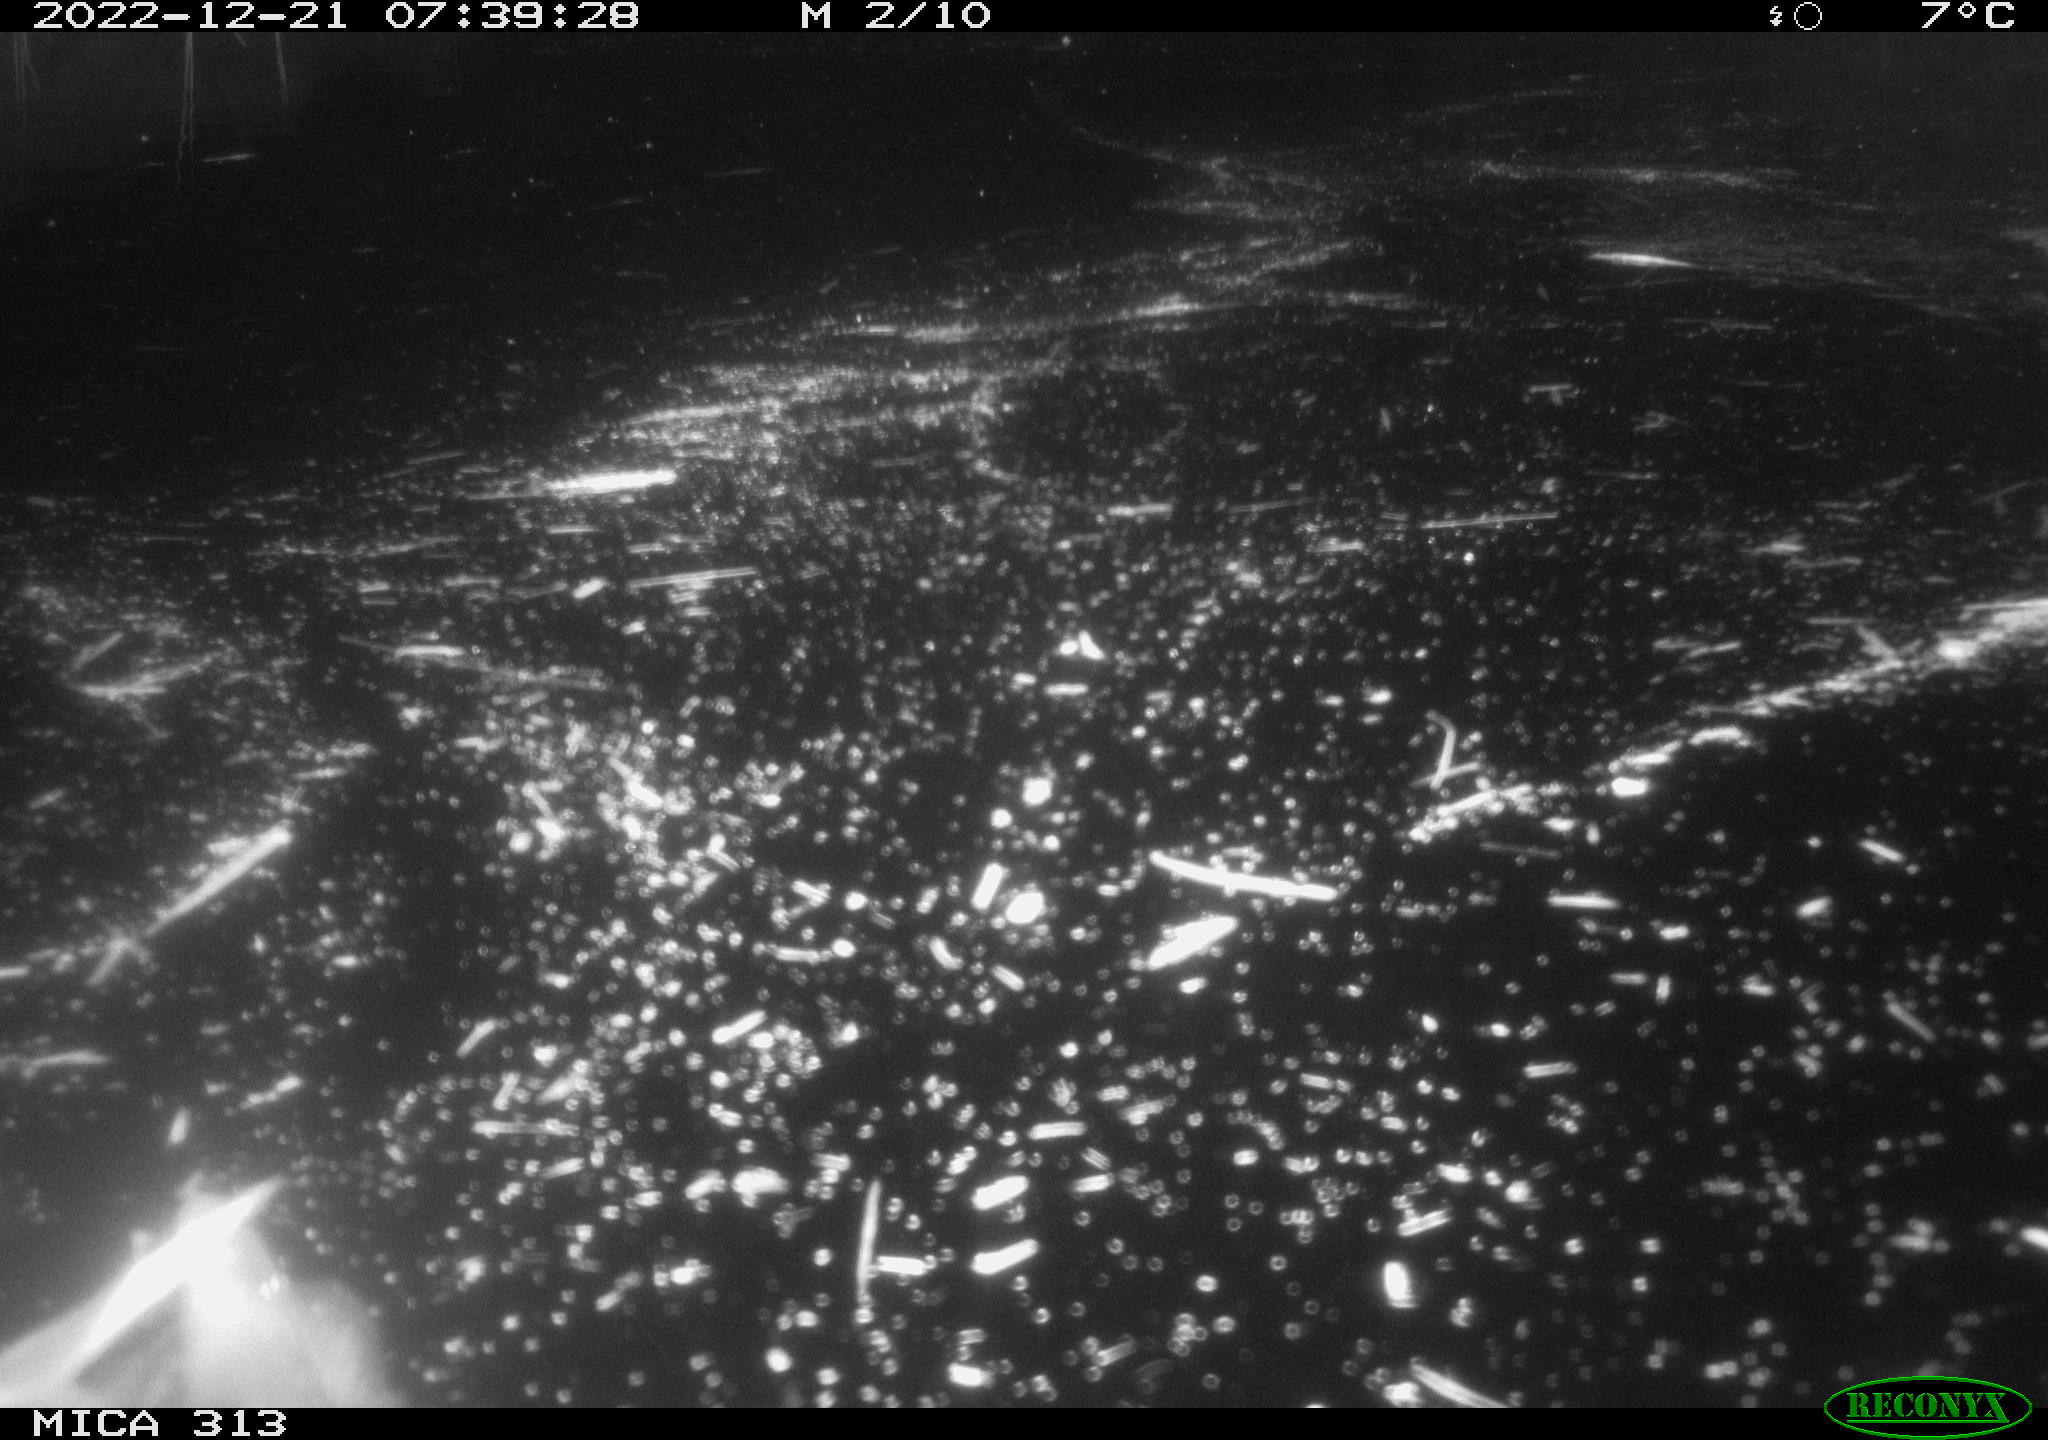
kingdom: Animalia
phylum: Chordata
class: Mammalia
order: Rodentia
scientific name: Rodentia
